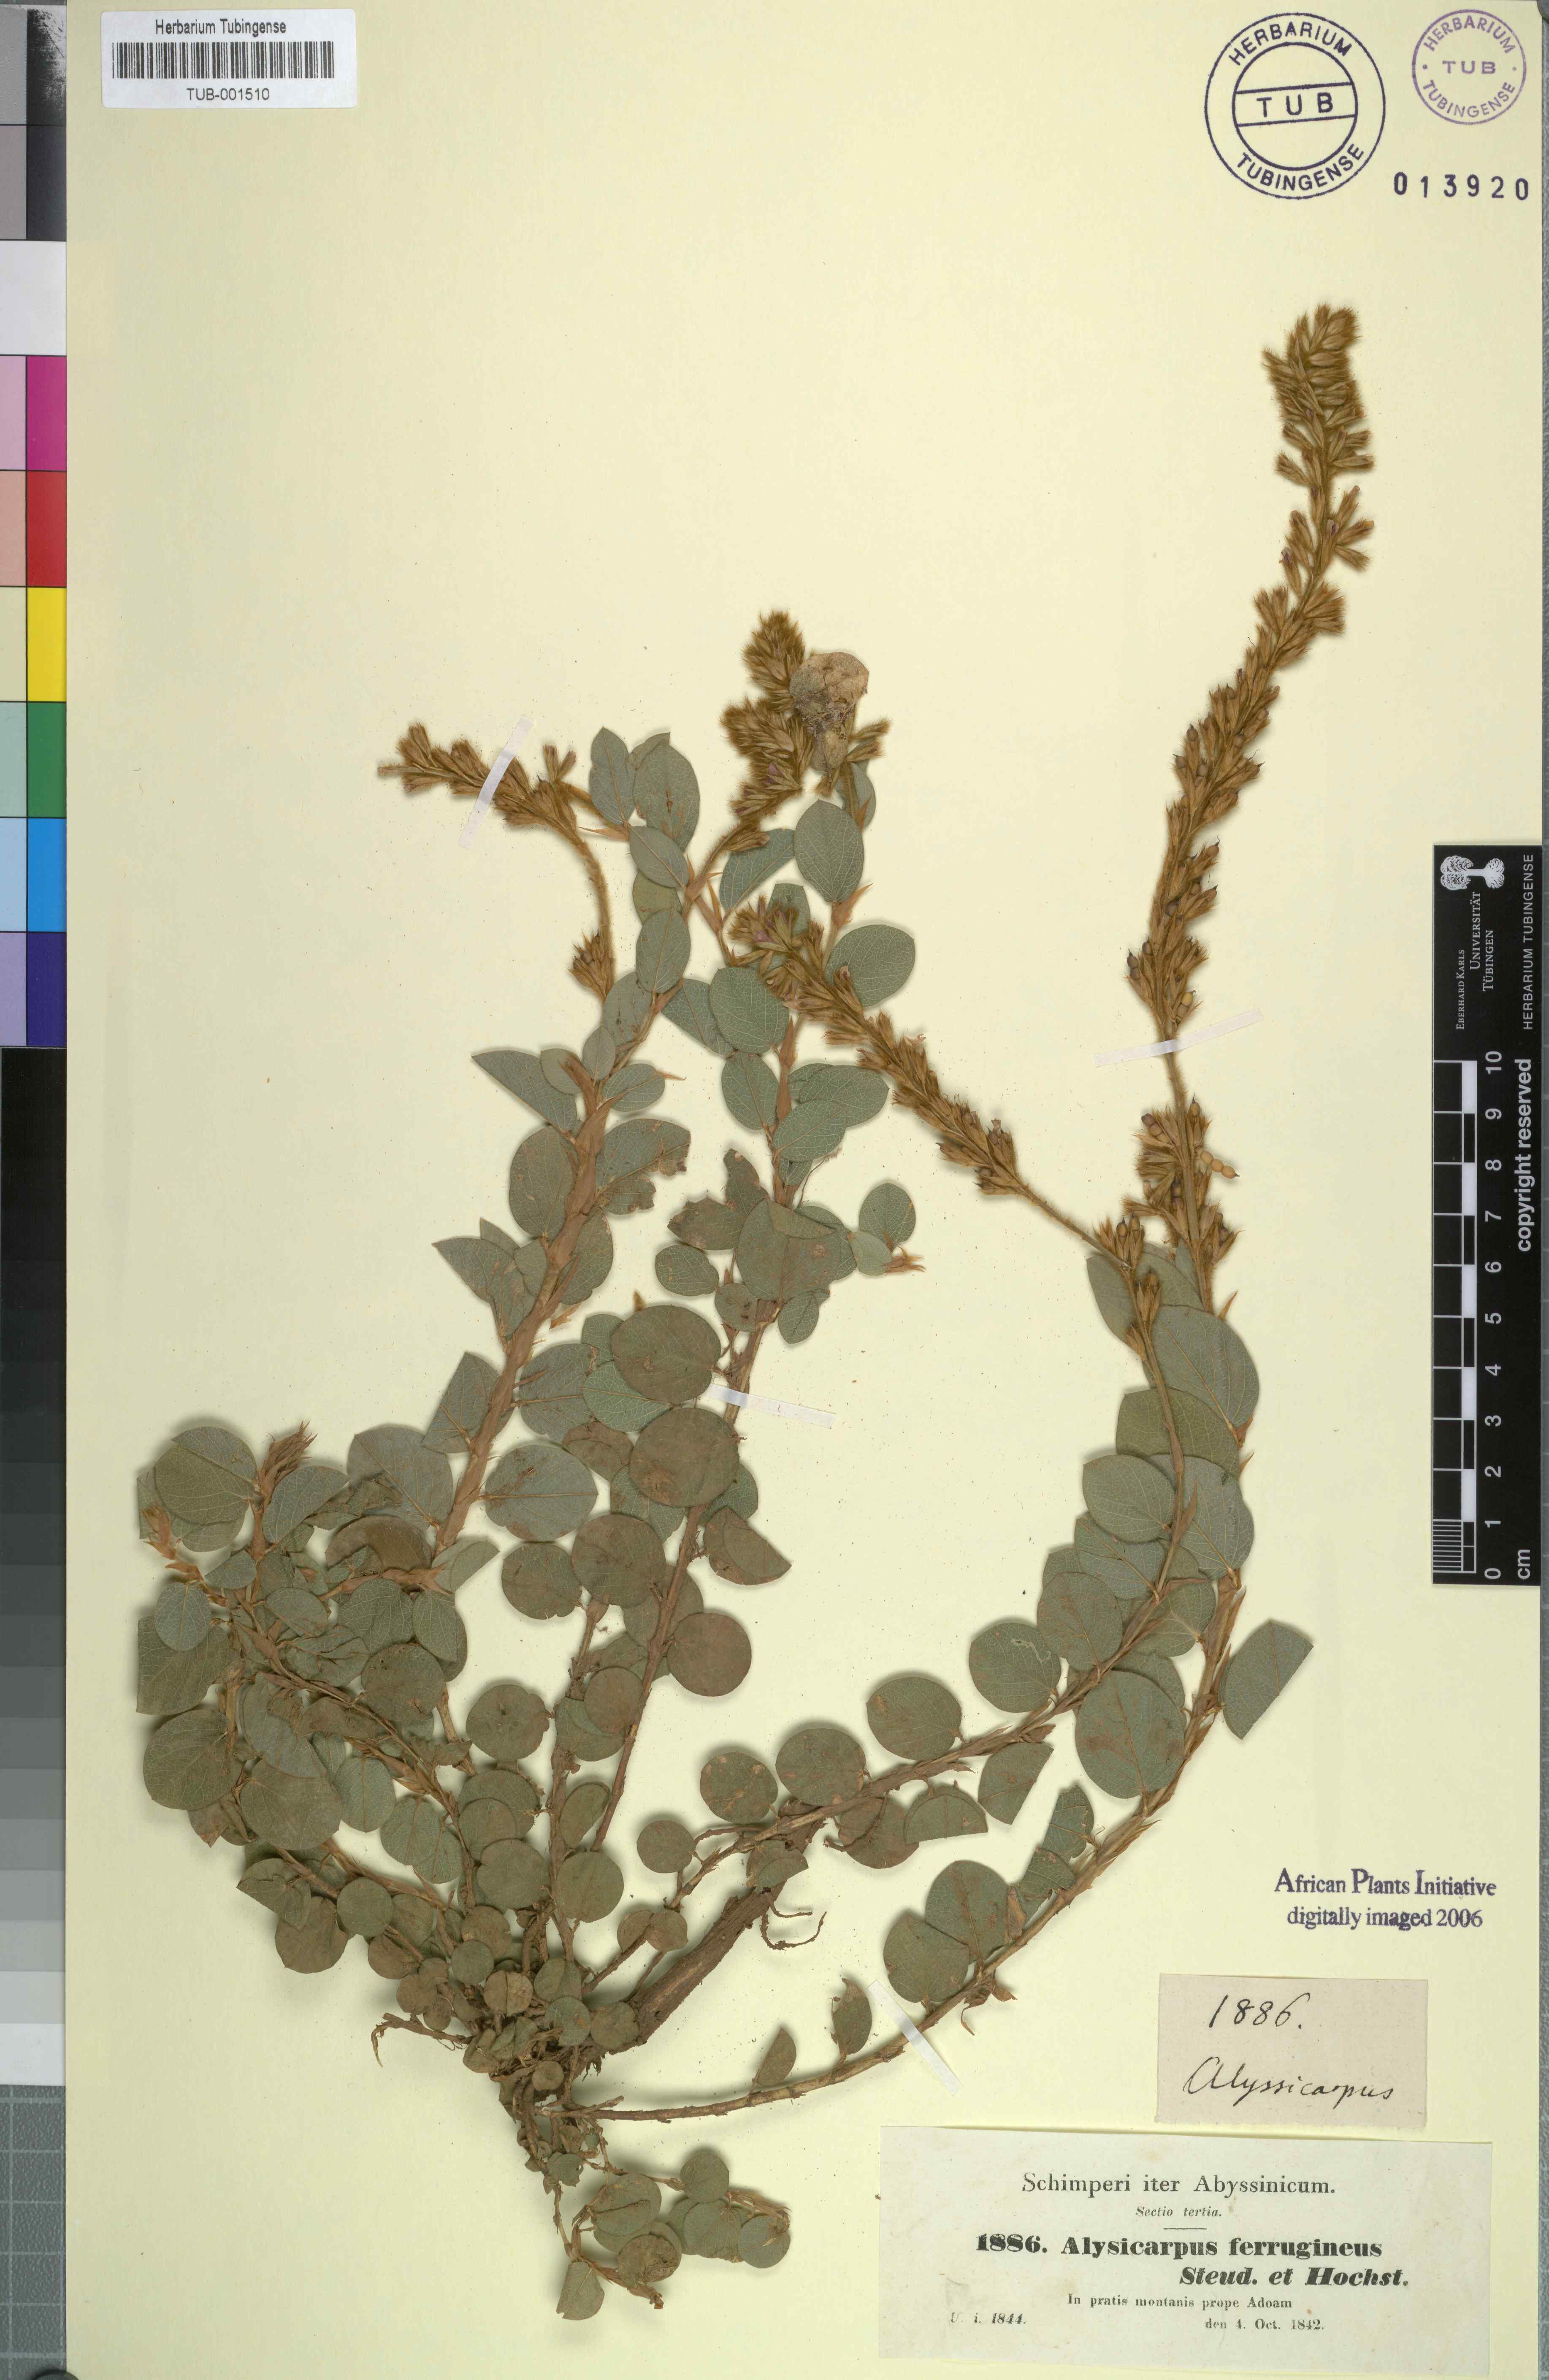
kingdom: Plantae
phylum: Tracheophyta
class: Magnoliopsida
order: Fabales
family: Fabaceae
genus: Alysicarpus
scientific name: Alysicarpus ferrugineus
